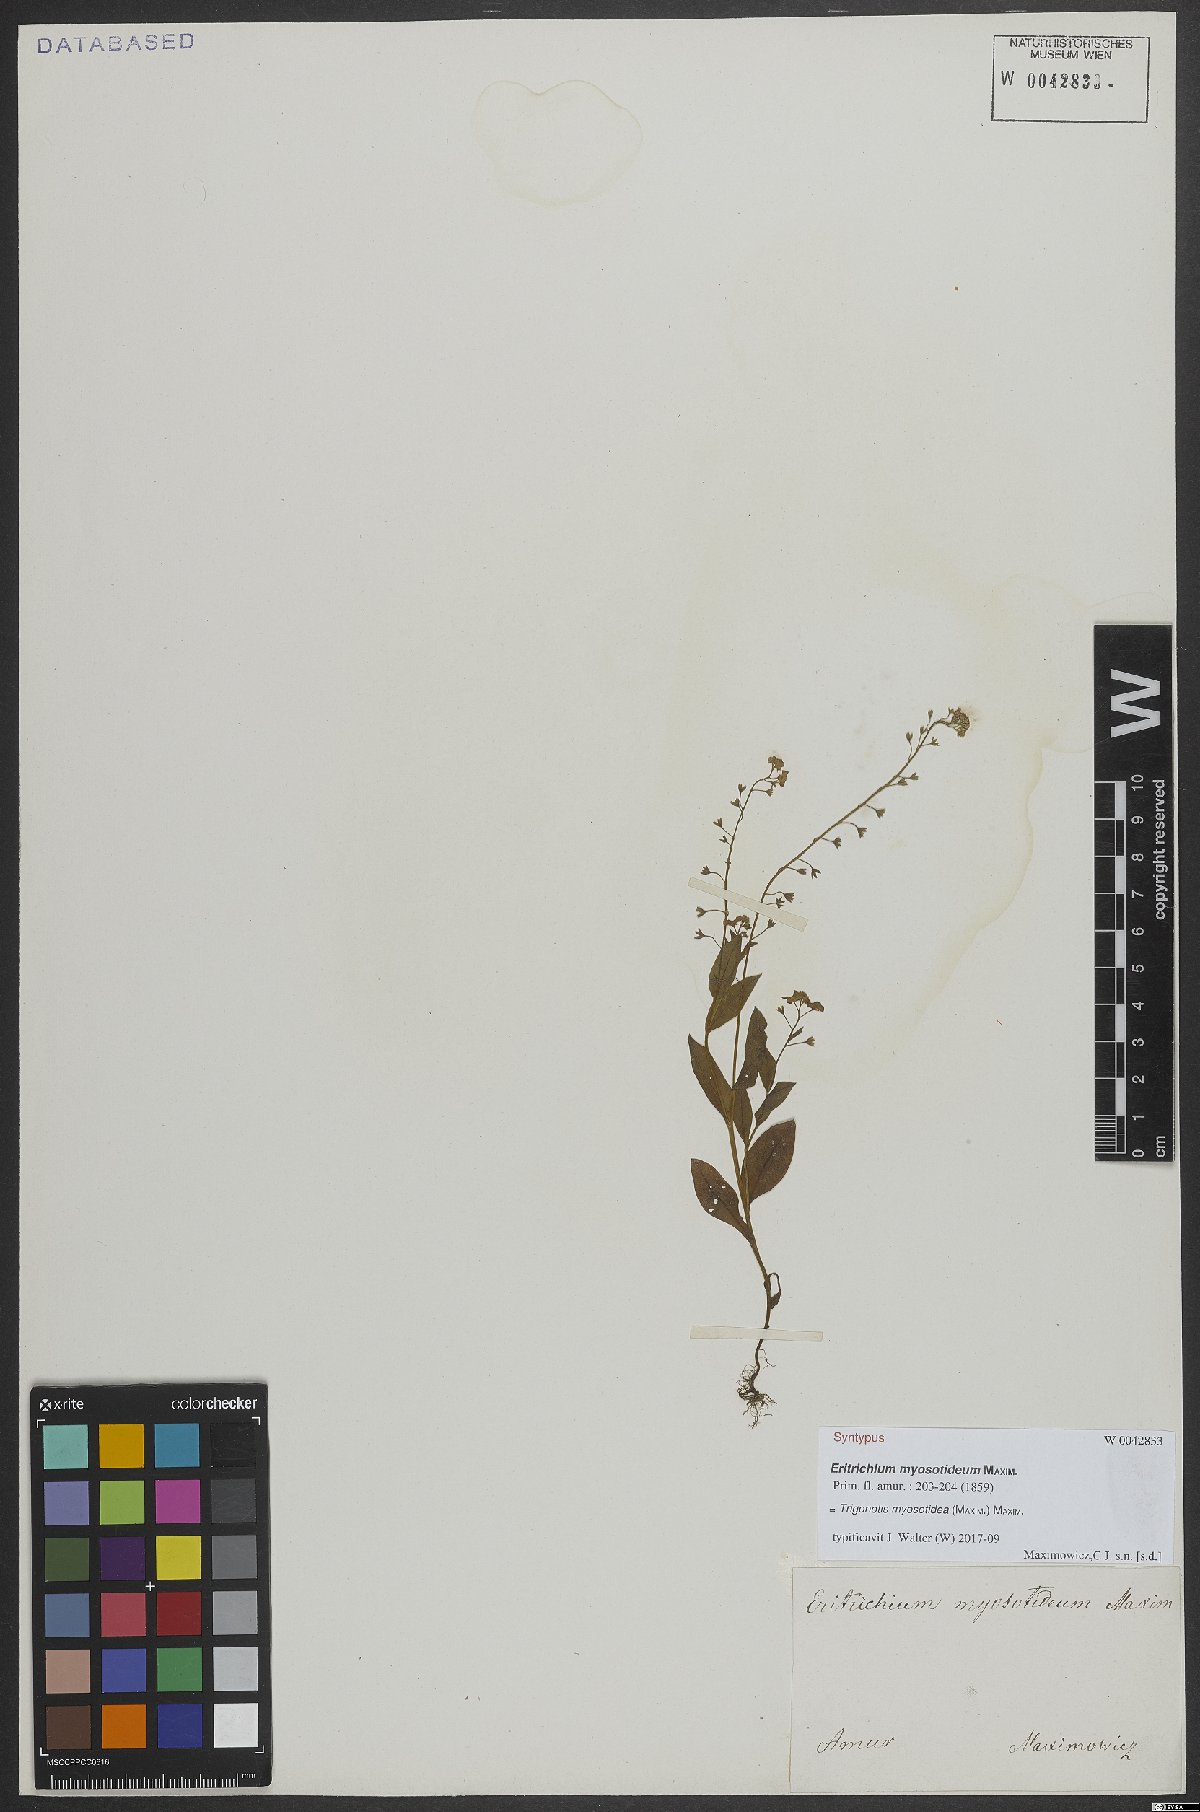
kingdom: Plantae
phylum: Tracheophyta
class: Magnoliopsida
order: Boraginales
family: Boraginaceae
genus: Trigonotis
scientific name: Trigonotis myosotidea
